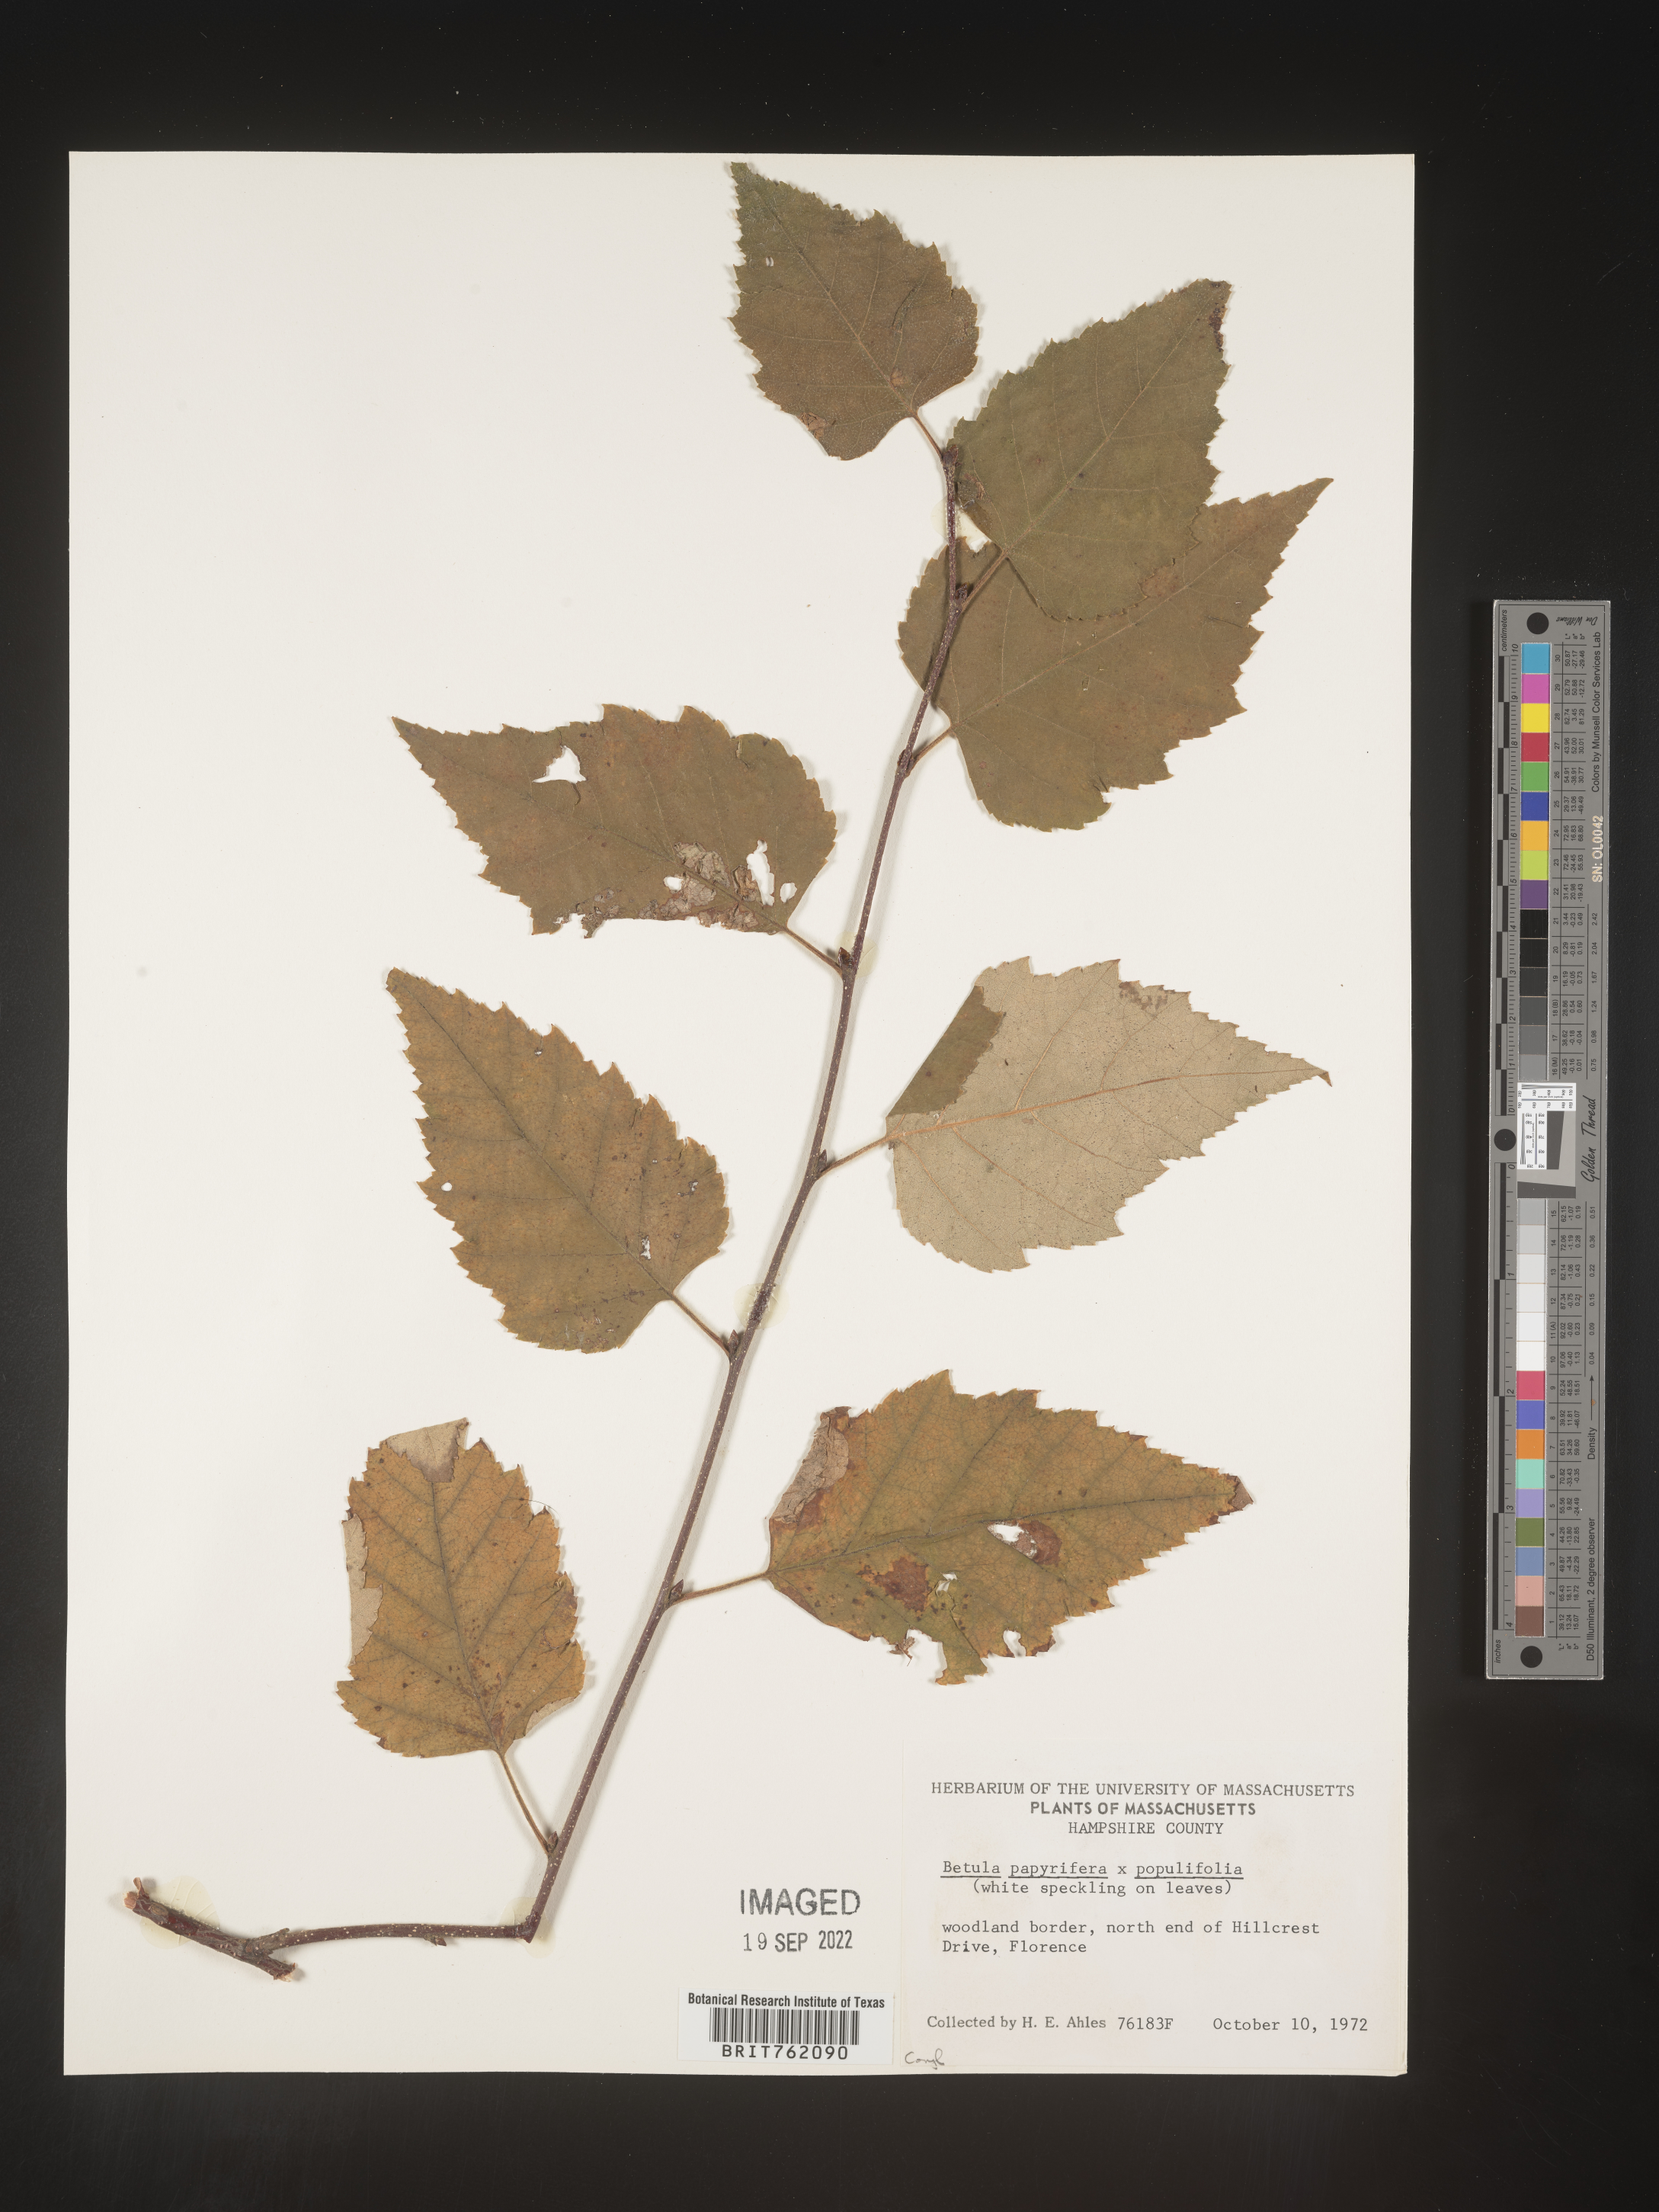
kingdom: Plantae
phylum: Tracheophyta
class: Magnoliopsida
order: Fagales
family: Betulaceae
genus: Betula
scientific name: Betula papyrifera
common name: Paper birch
